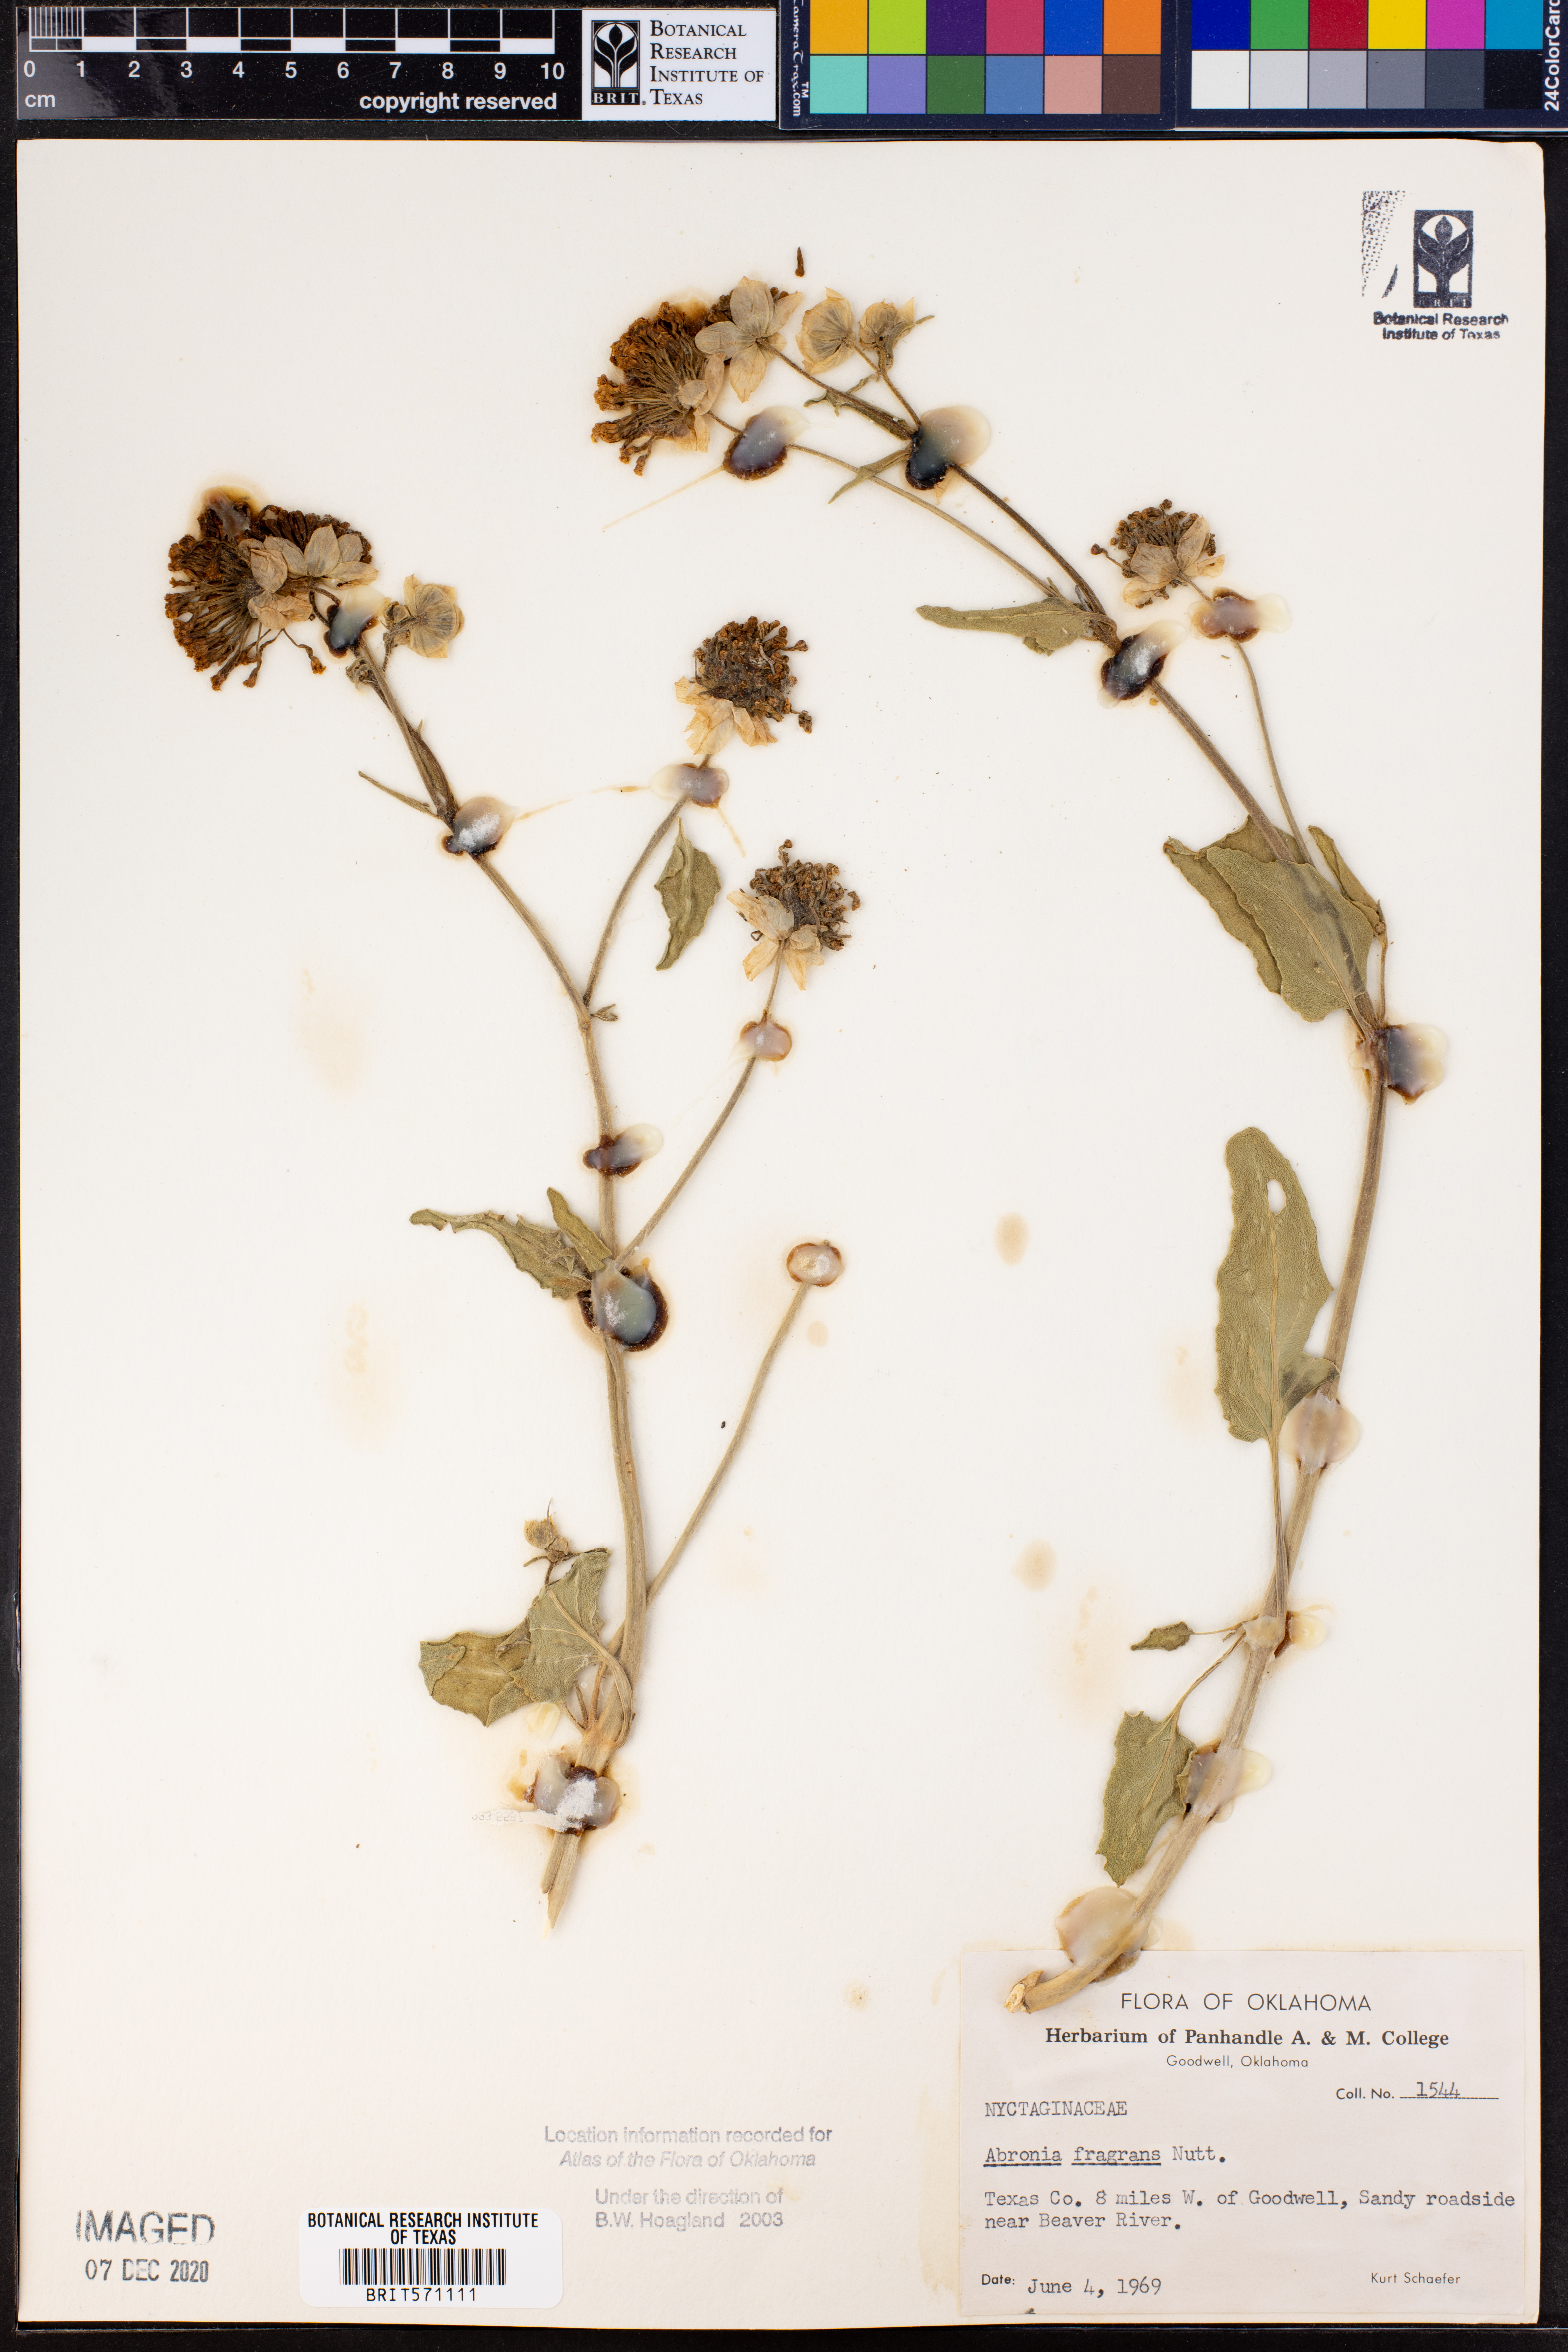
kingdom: Plantae
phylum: Tracheophyta
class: Magnoliopsida
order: Caryophyllales
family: Nyctaginaceae
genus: Abronia
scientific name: Abronia fragrans
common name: Fragrant sand-verbena
